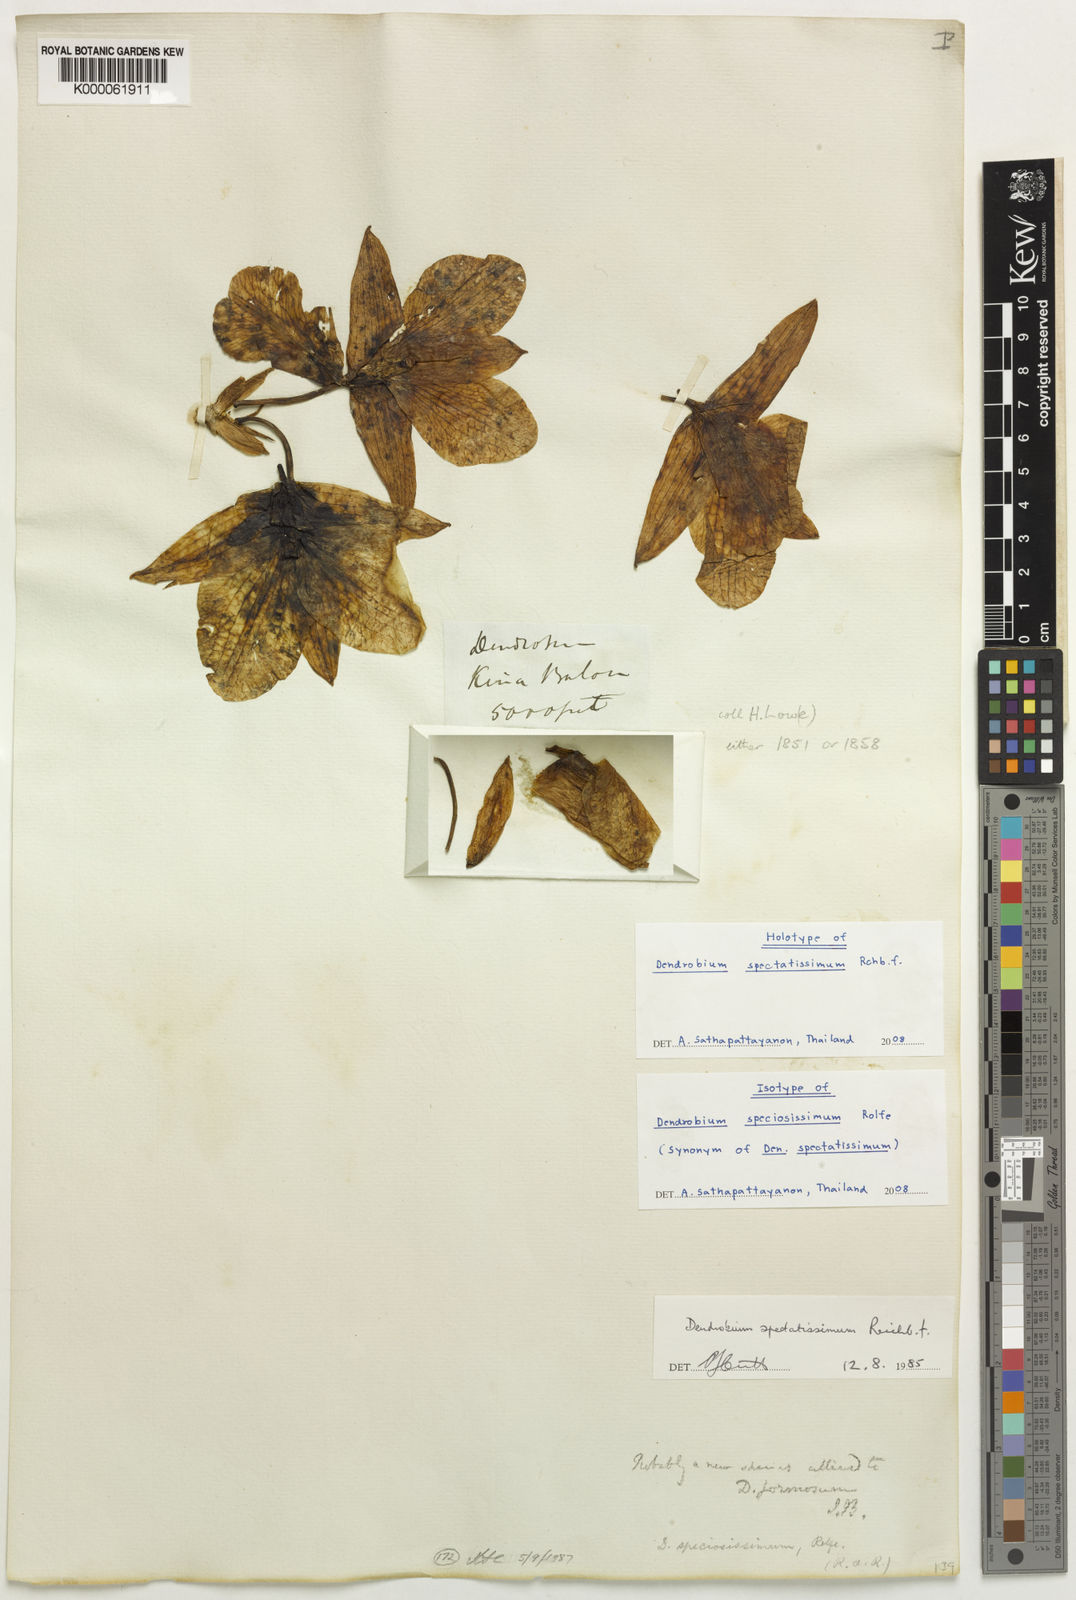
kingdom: Plantae
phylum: Tracheophyta
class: Liliopsida
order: Asparagales
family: Orchidaceae
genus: Dendrobium
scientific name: Dendrobium spectatissimum
